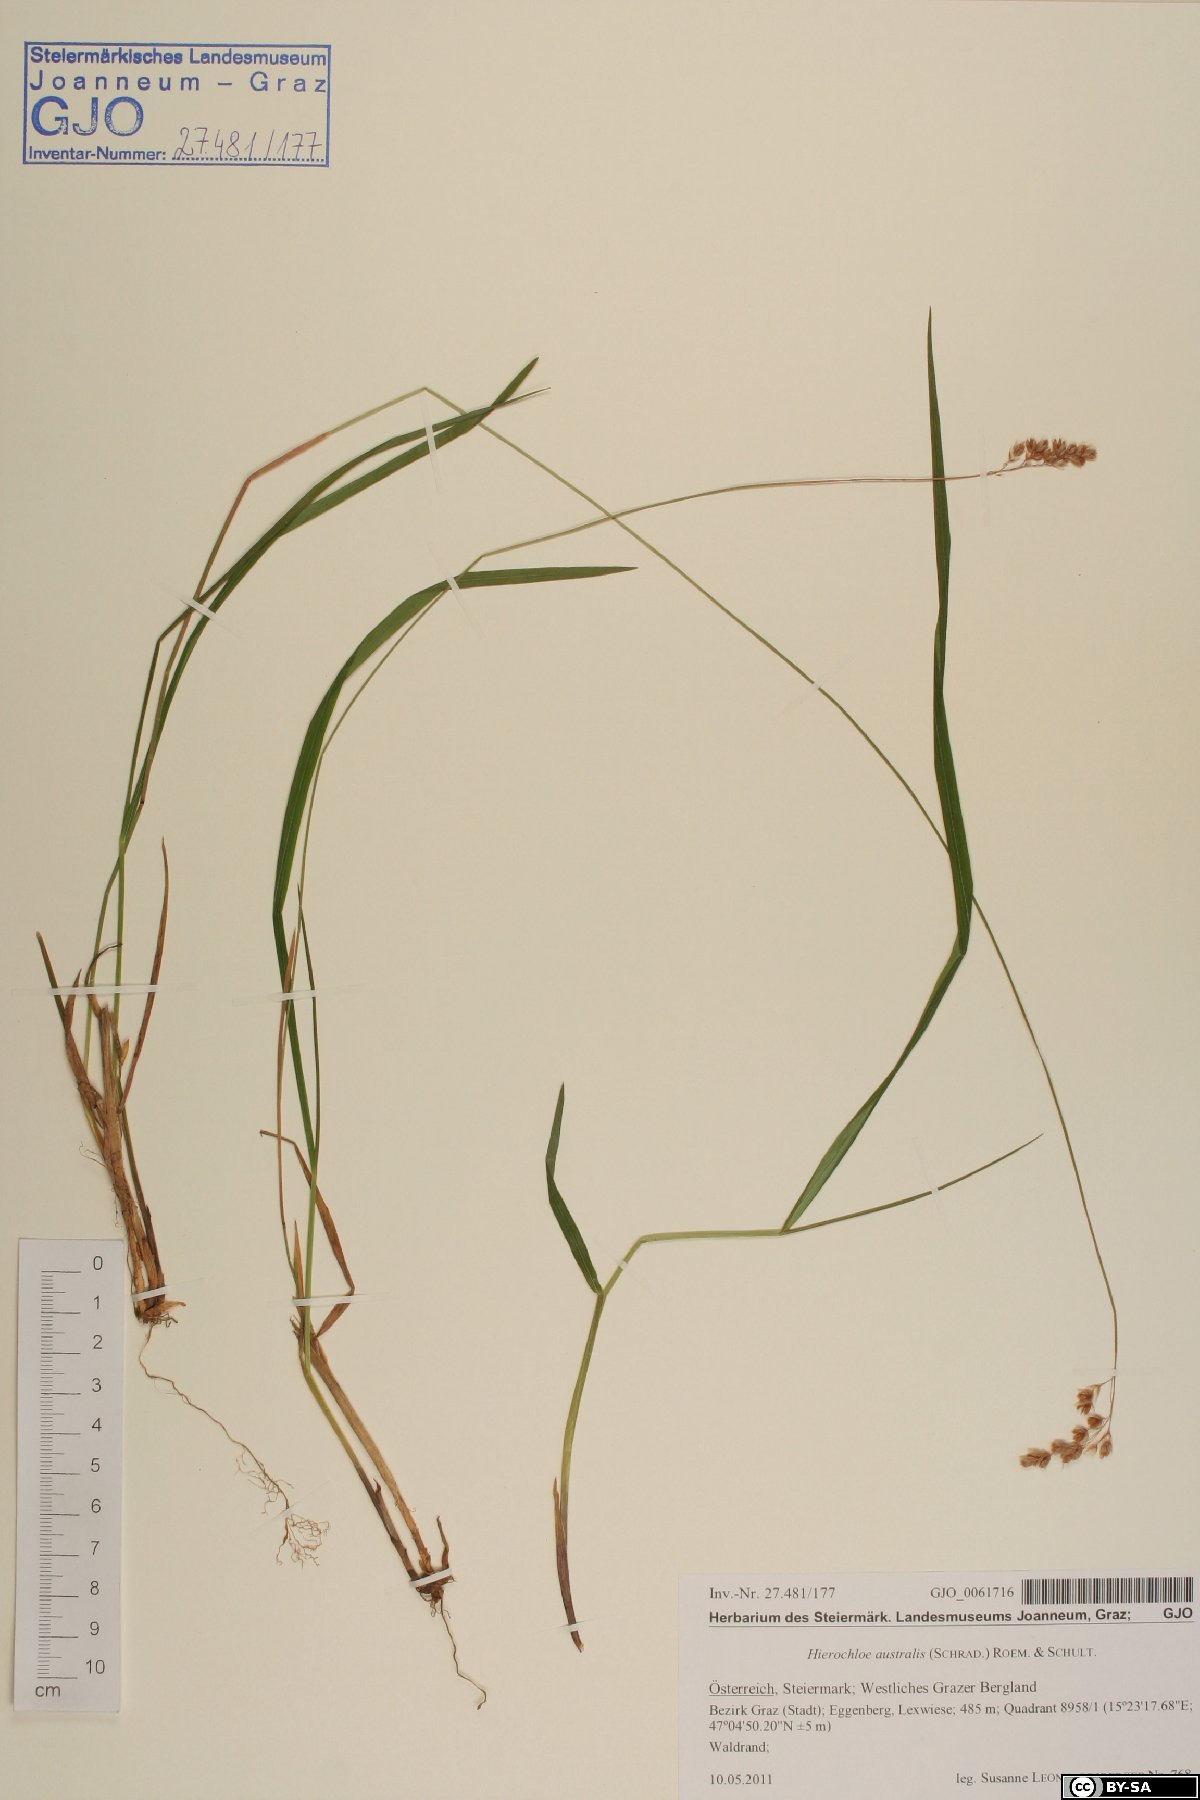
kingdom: Plantae
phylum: Tracheophyta
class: Liliopsida
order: Poales
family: Poaceae
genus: Anthoxanthum
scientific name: Anthoxanthum australe
